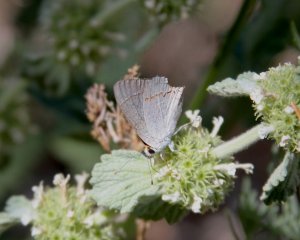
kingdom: Animalia
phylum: Arthropoda
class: Insecta
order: Lepidoptera
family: Lycaenidae
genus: Strymon
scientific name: Strymon melinus
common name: Gray Hairstreak
